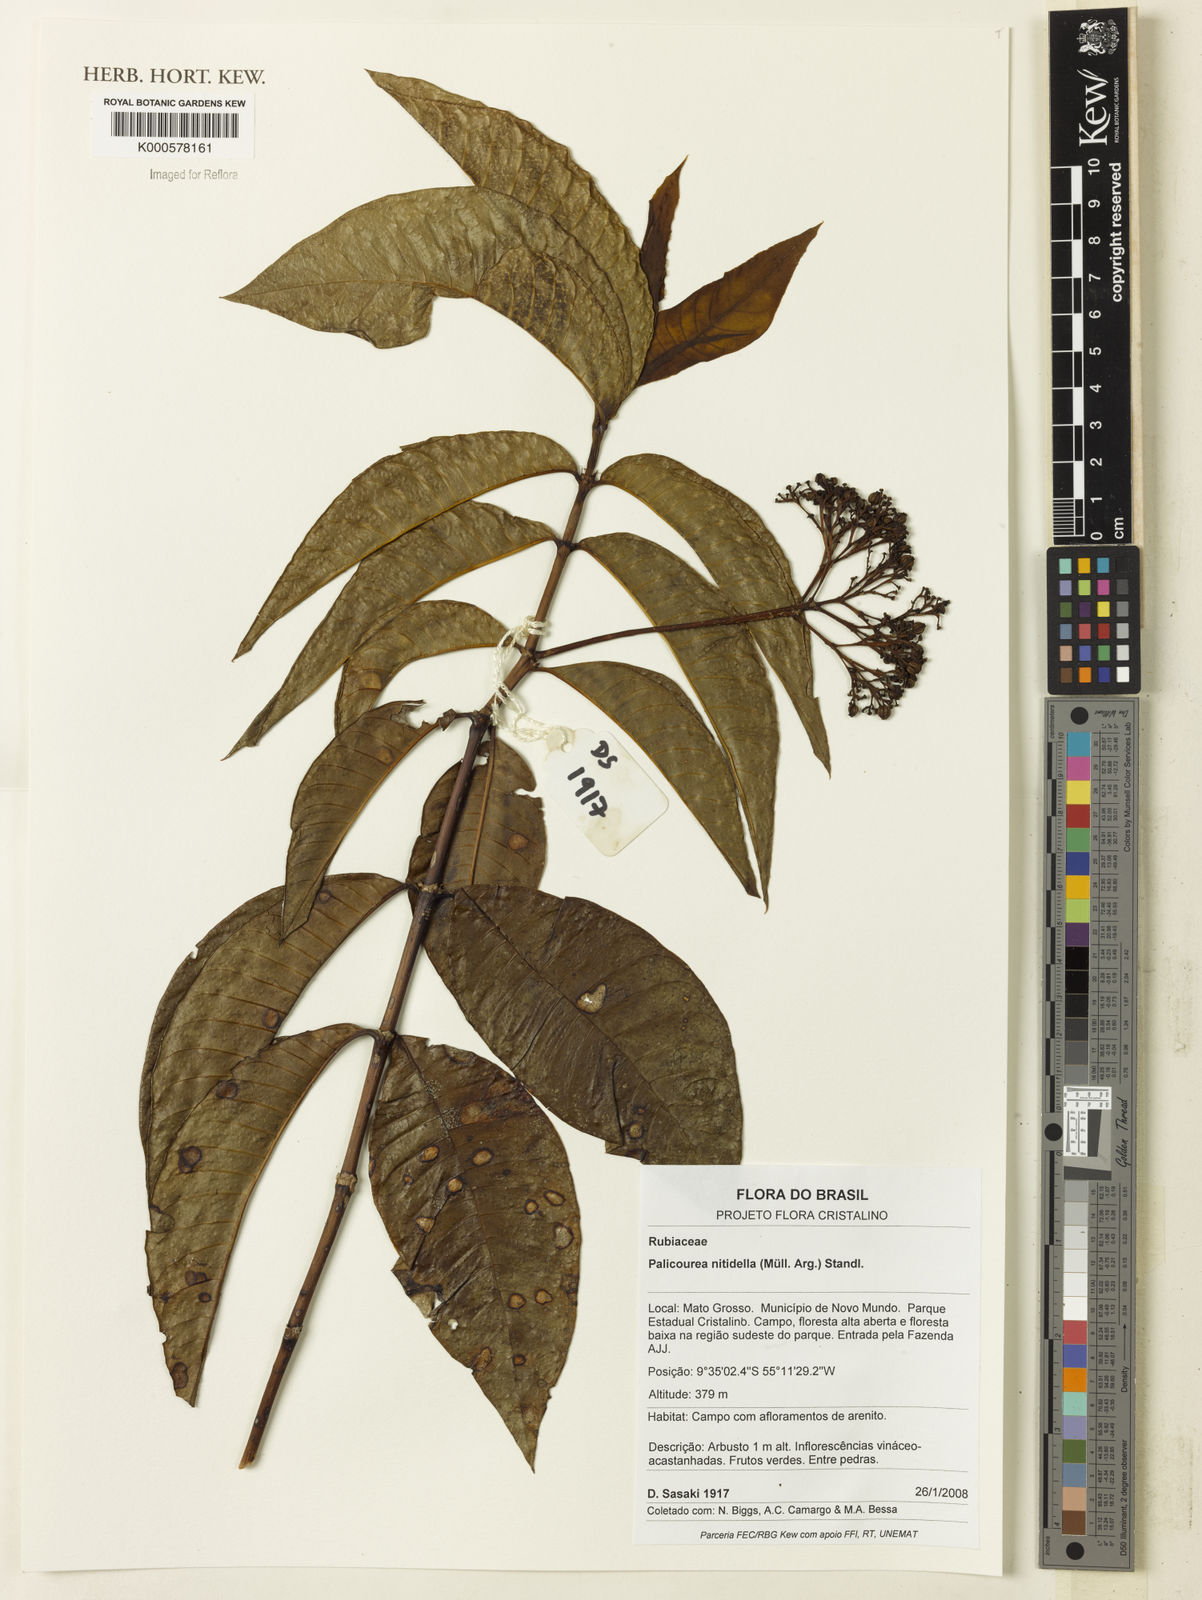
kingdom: Plantae
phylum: Tracheophyta
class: Magnoliopsida
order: Gentianales
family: Rubiaceae
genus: Palicourea
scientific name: Palicourea
